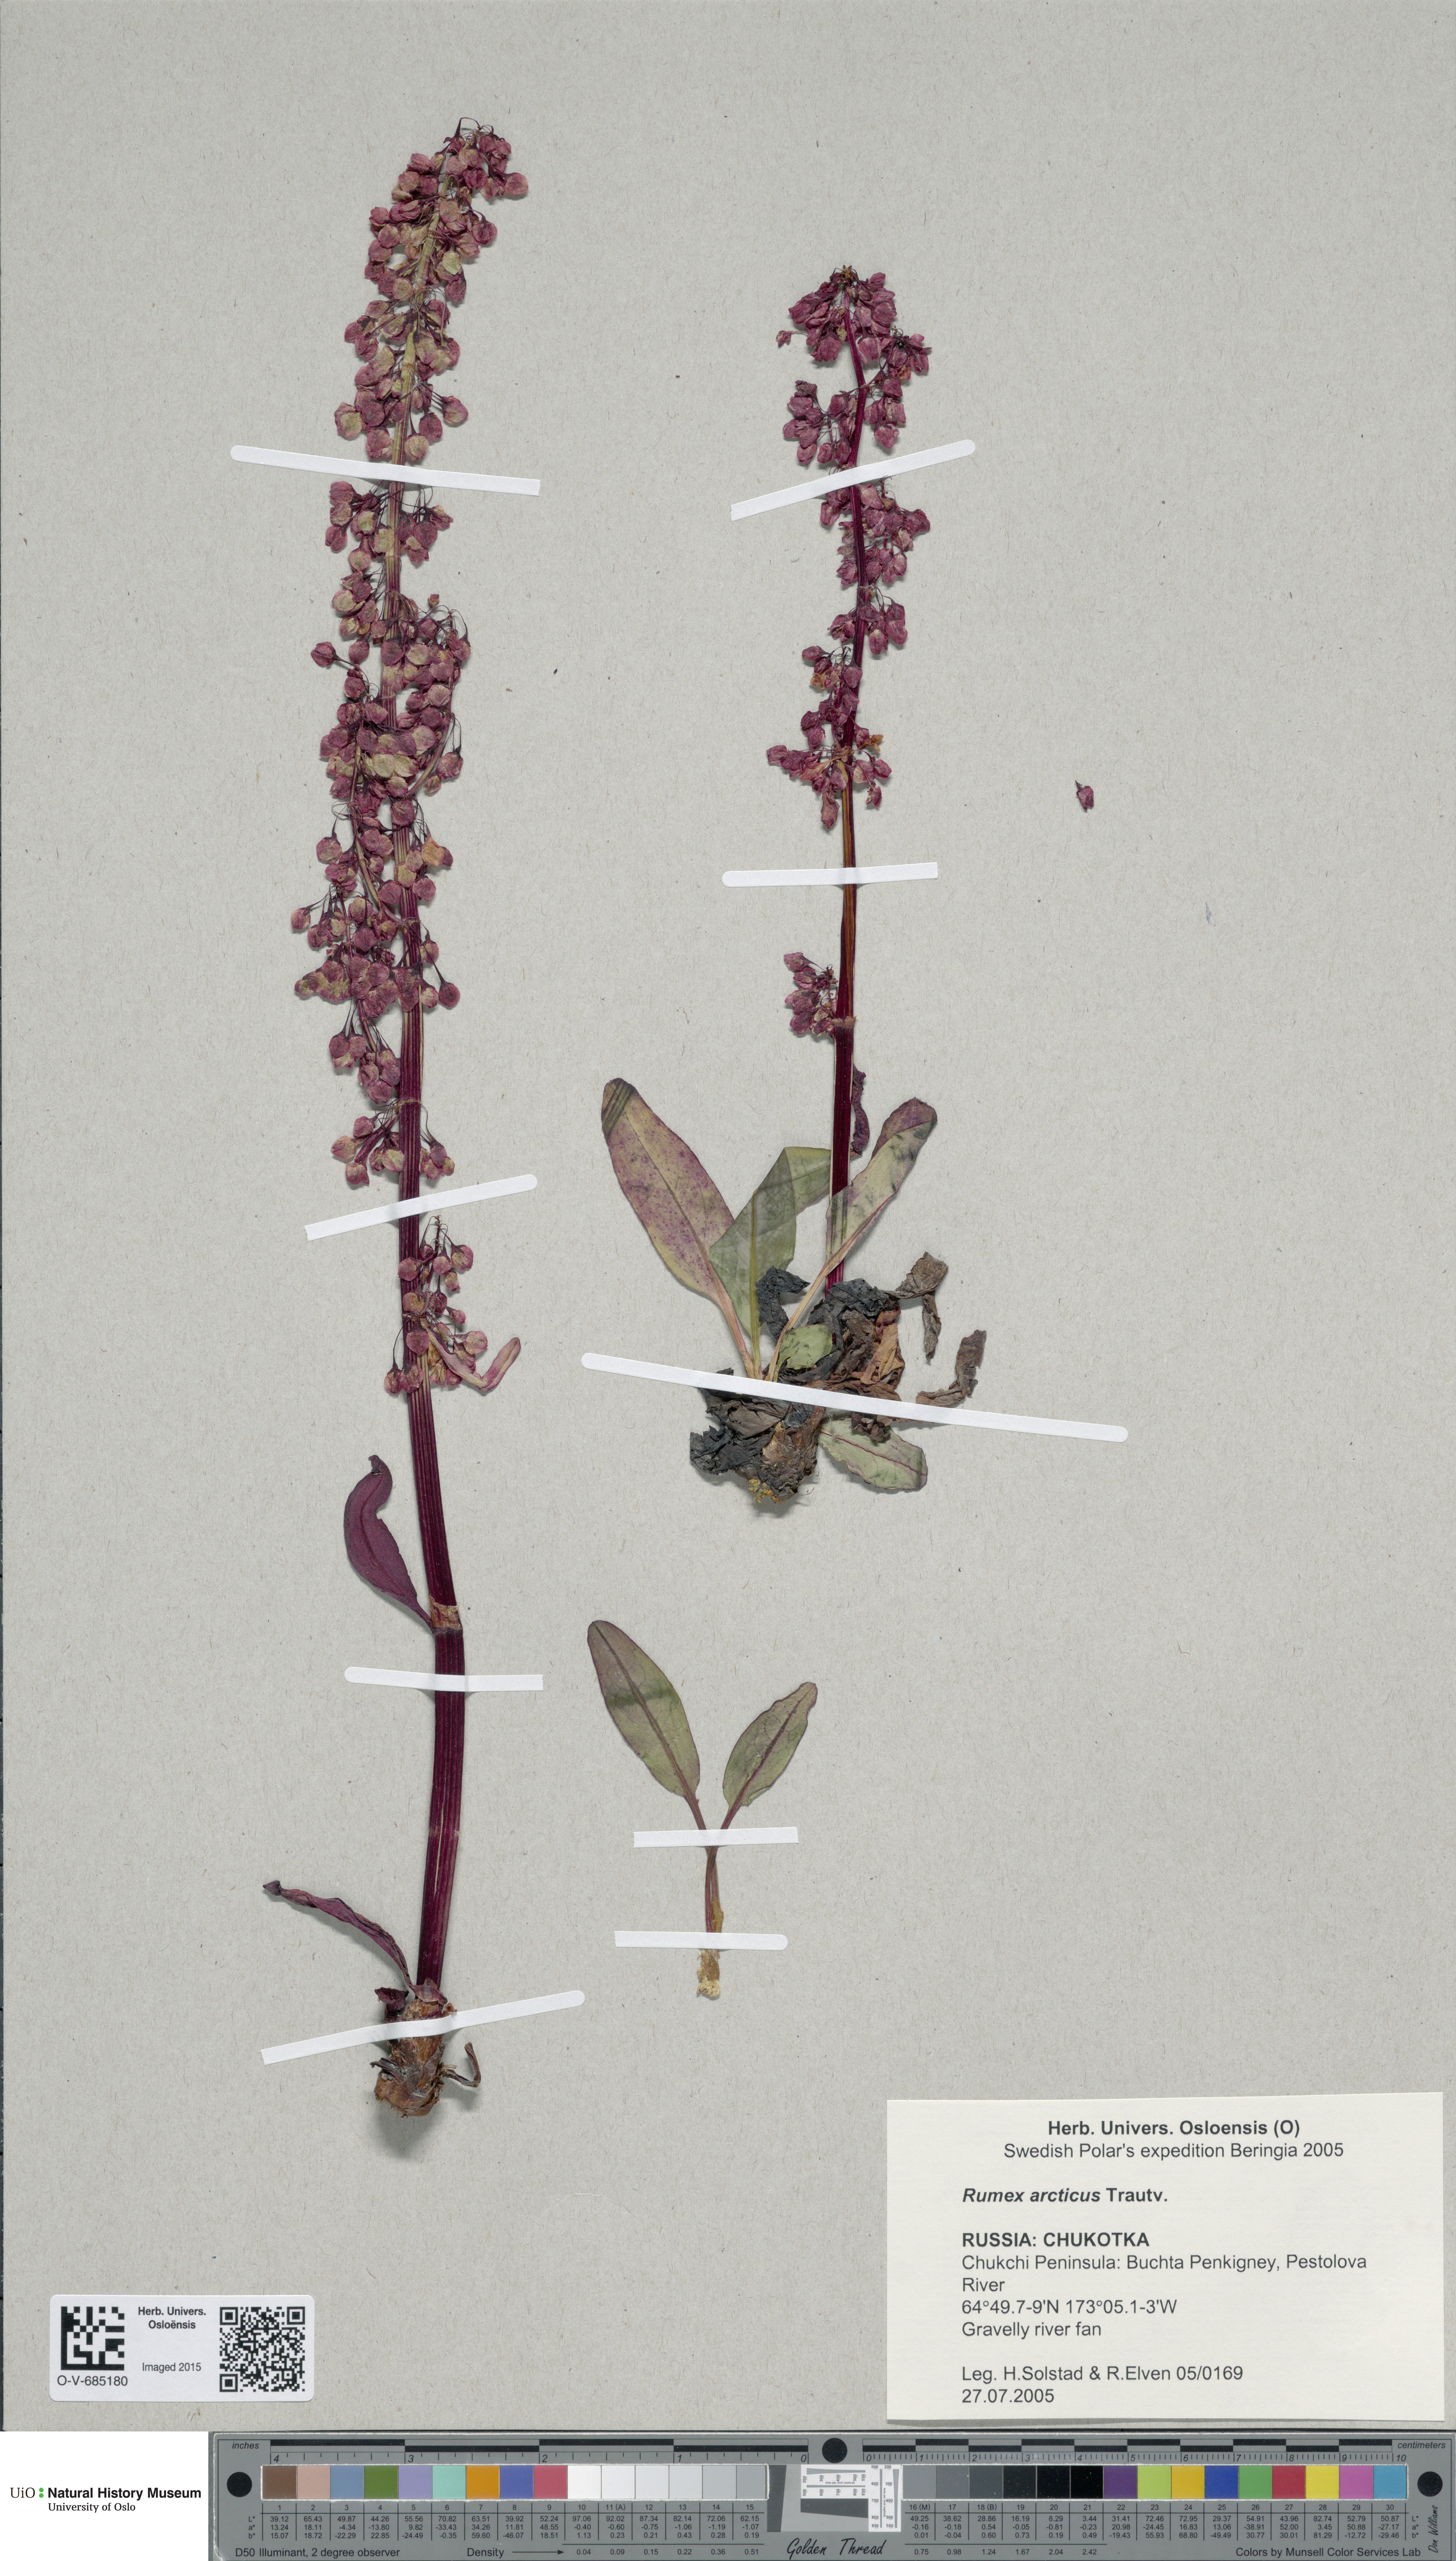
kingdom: Plantae
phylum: Tracheophyta
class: Magnoliopsida
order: Caryophyllales
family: Polygonaceae
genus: Rumex
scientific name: Rumex arcticus
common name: Arctic dock
